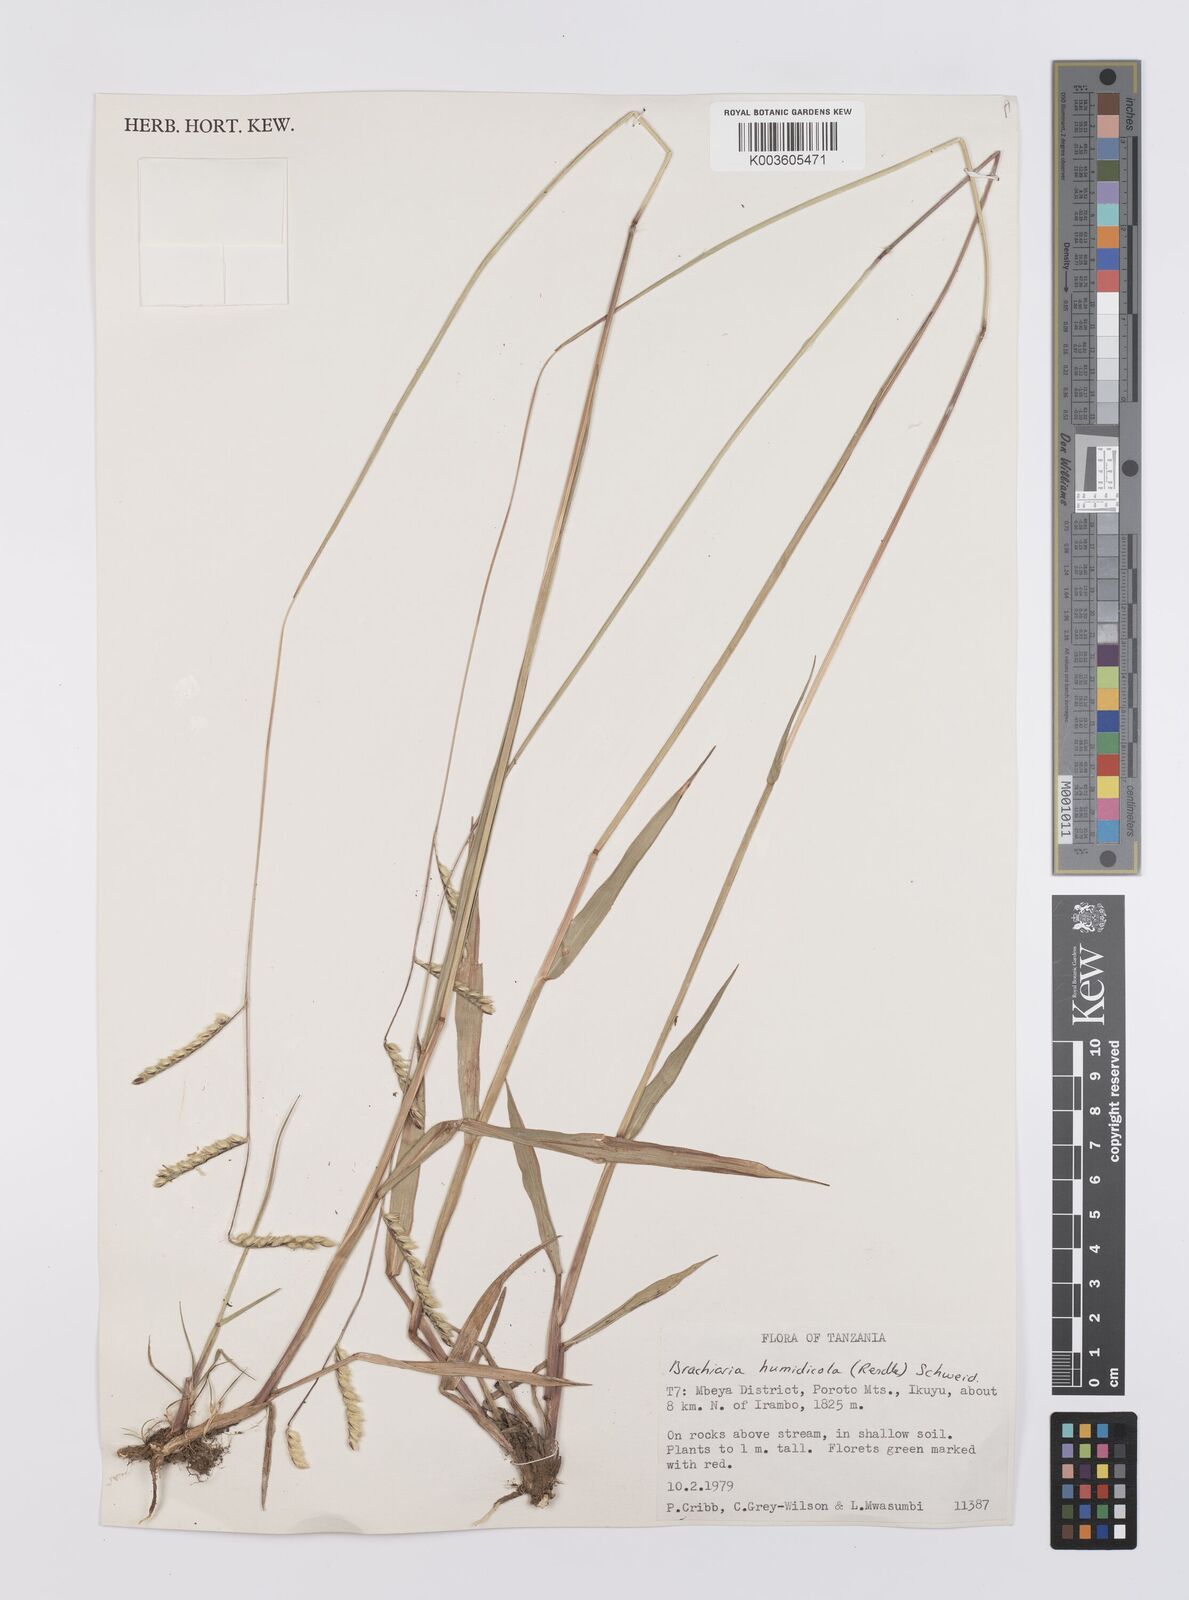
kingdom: Plantae
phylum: Tracheophyta
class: Liliopsida
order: Poales
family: Poaceae
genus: Urochloa
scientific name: Urochloa dictyoneura
